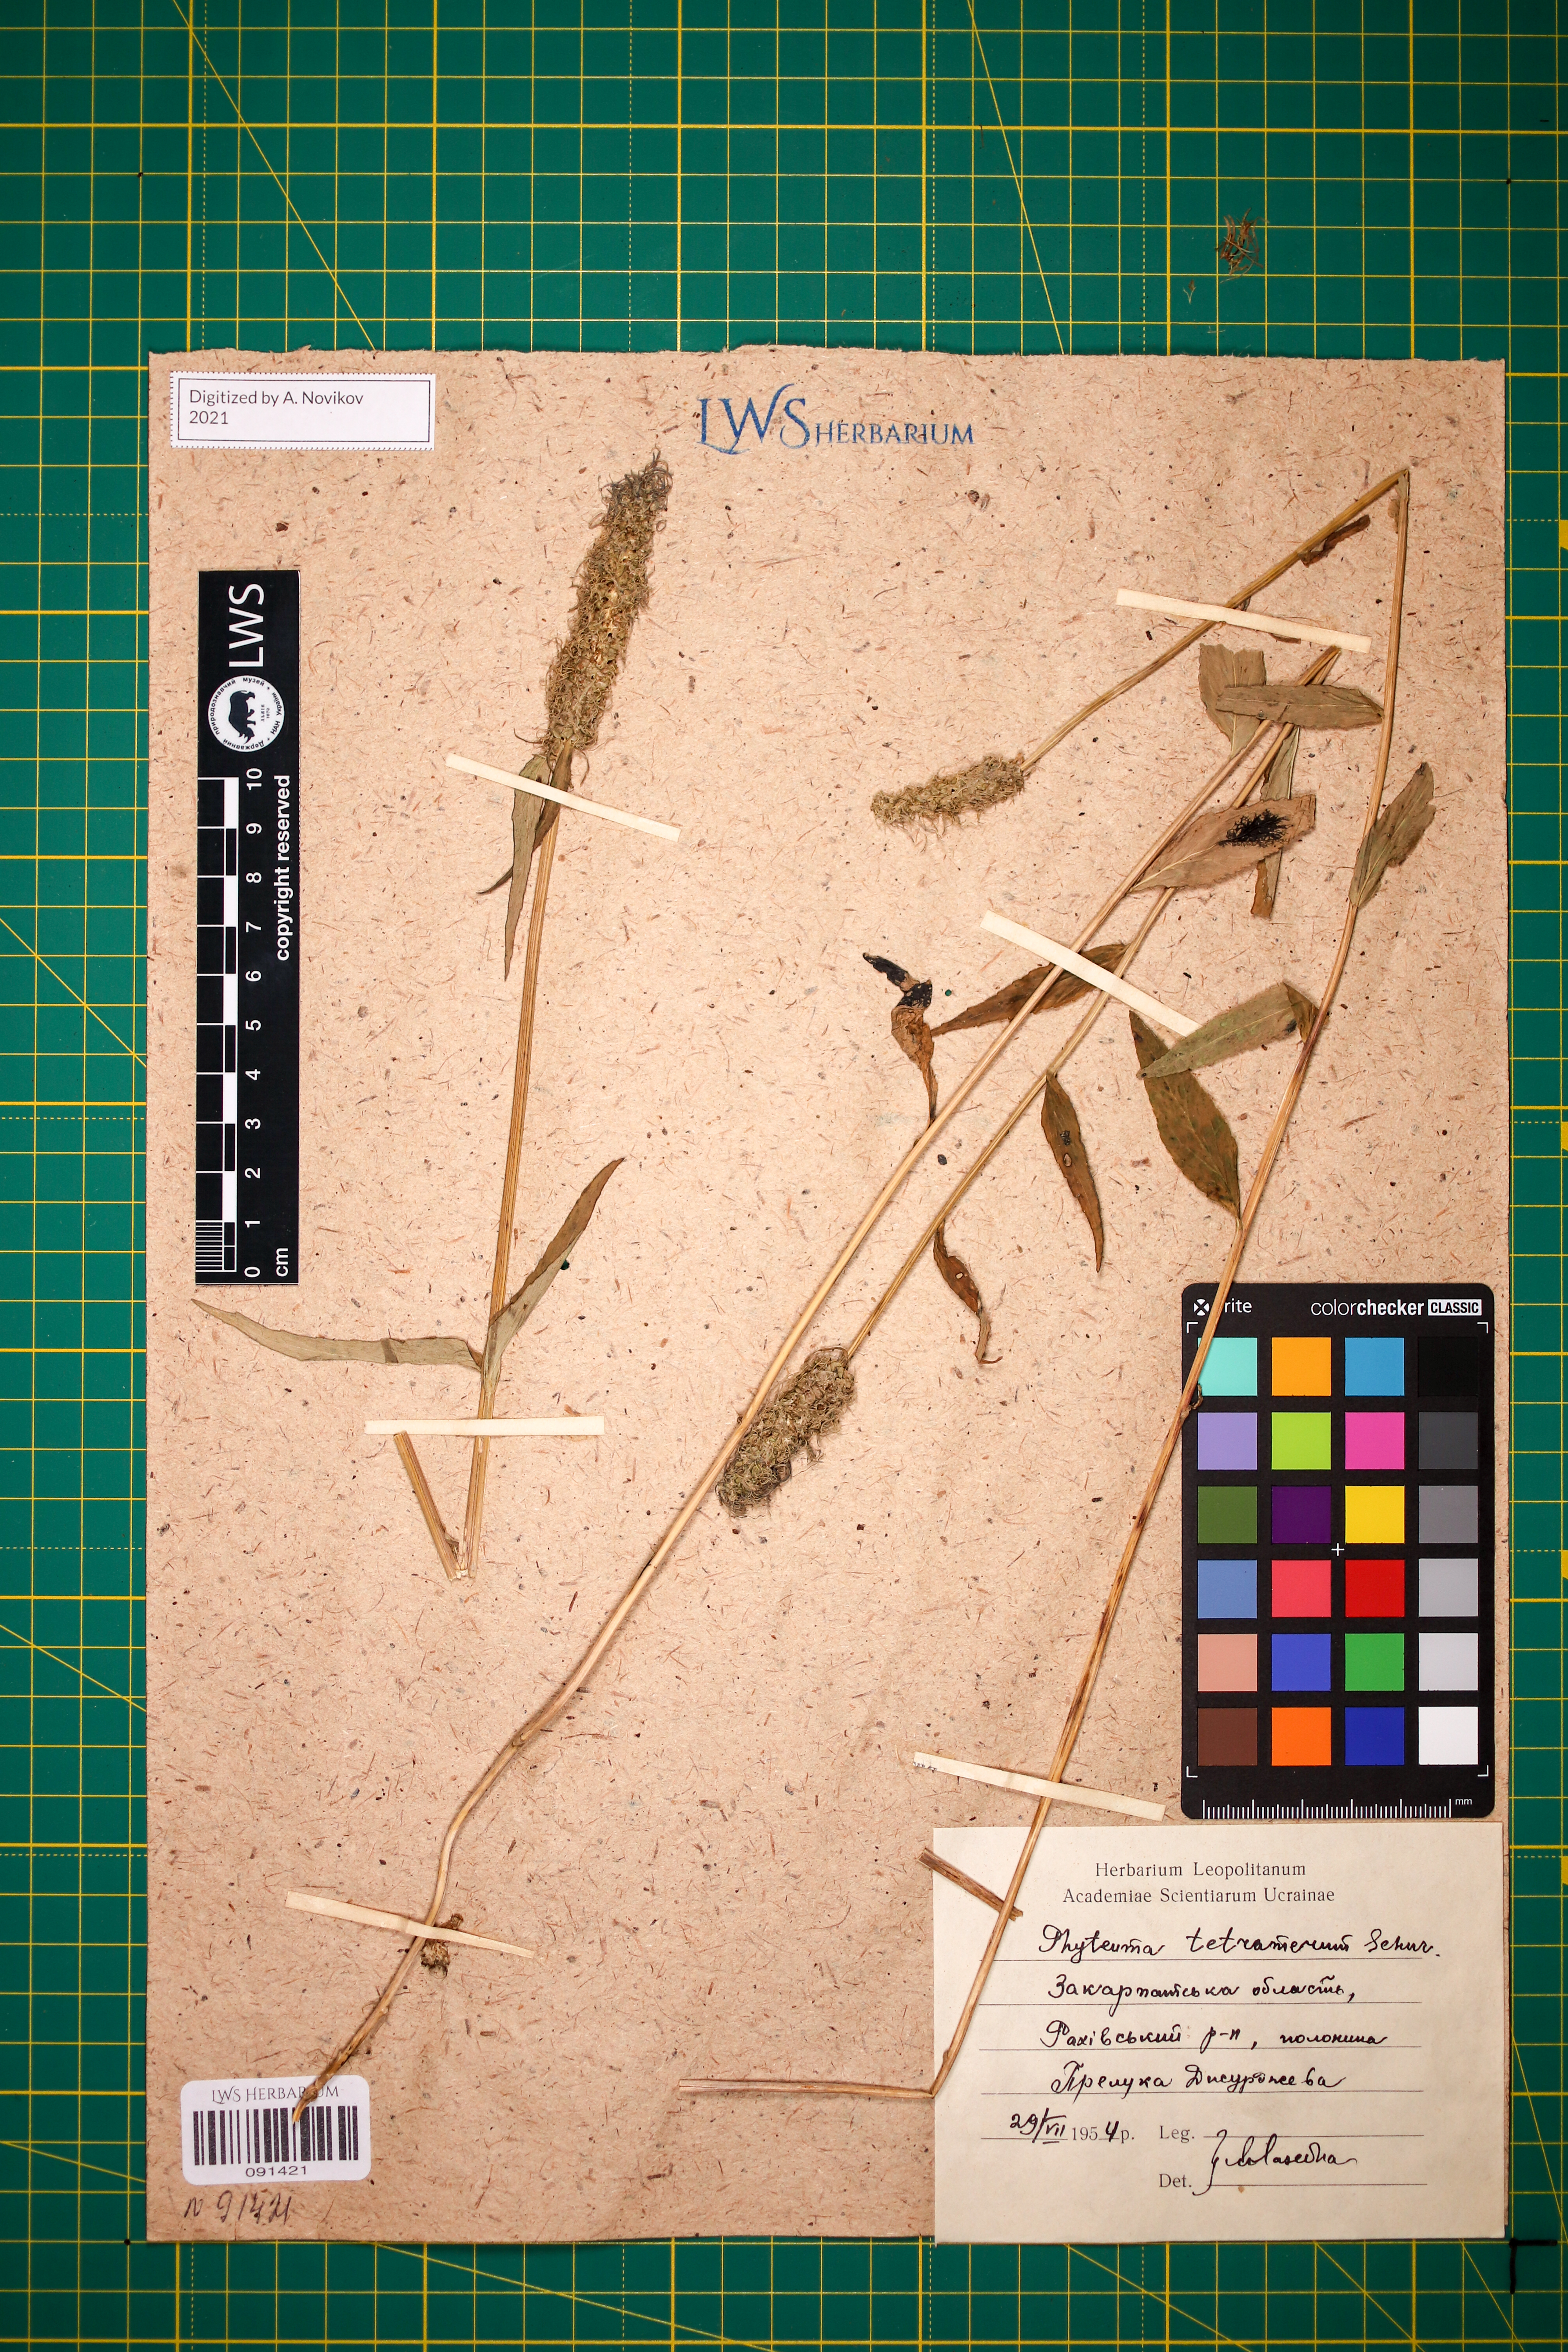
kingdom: Plantae
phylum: Tracheophyta
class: Magnoliopsida
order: Asterales
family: Campanulaceae
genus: Phyteuma
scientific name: Phyteuma tetramerum
